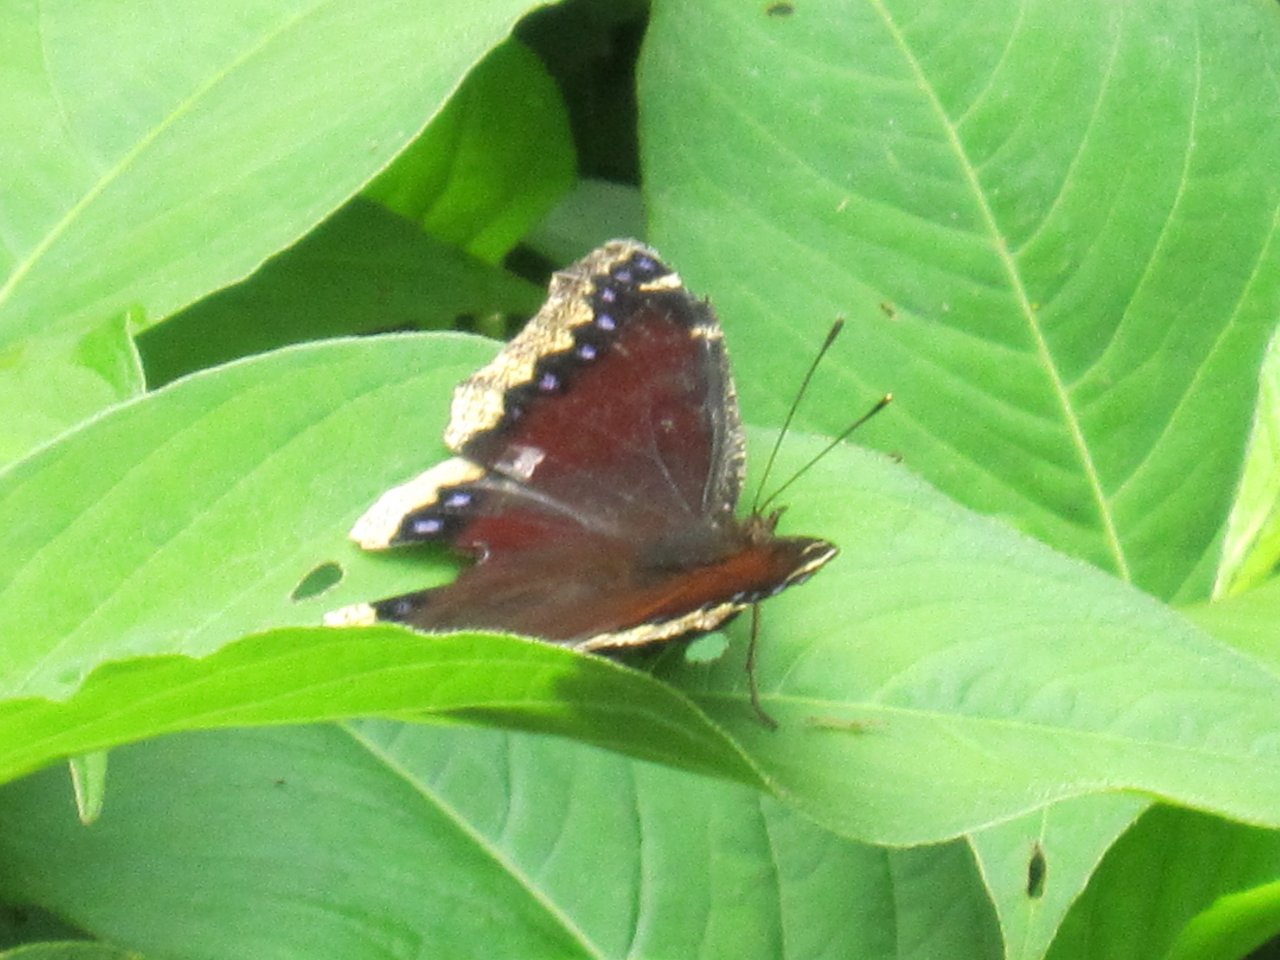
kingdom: Animalia
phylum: Arthropoda
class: Insecta
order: Lepidoptera
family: Nymphalidae
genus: Nymphalis
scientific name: Nymphalis antiopa
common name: Mourning Cloak
